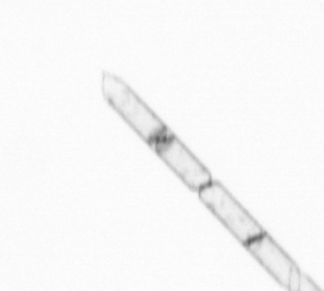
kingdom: Chromista
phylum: Ochrophyta
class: Bacillariophyceae
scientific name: Bacillariophyceae
